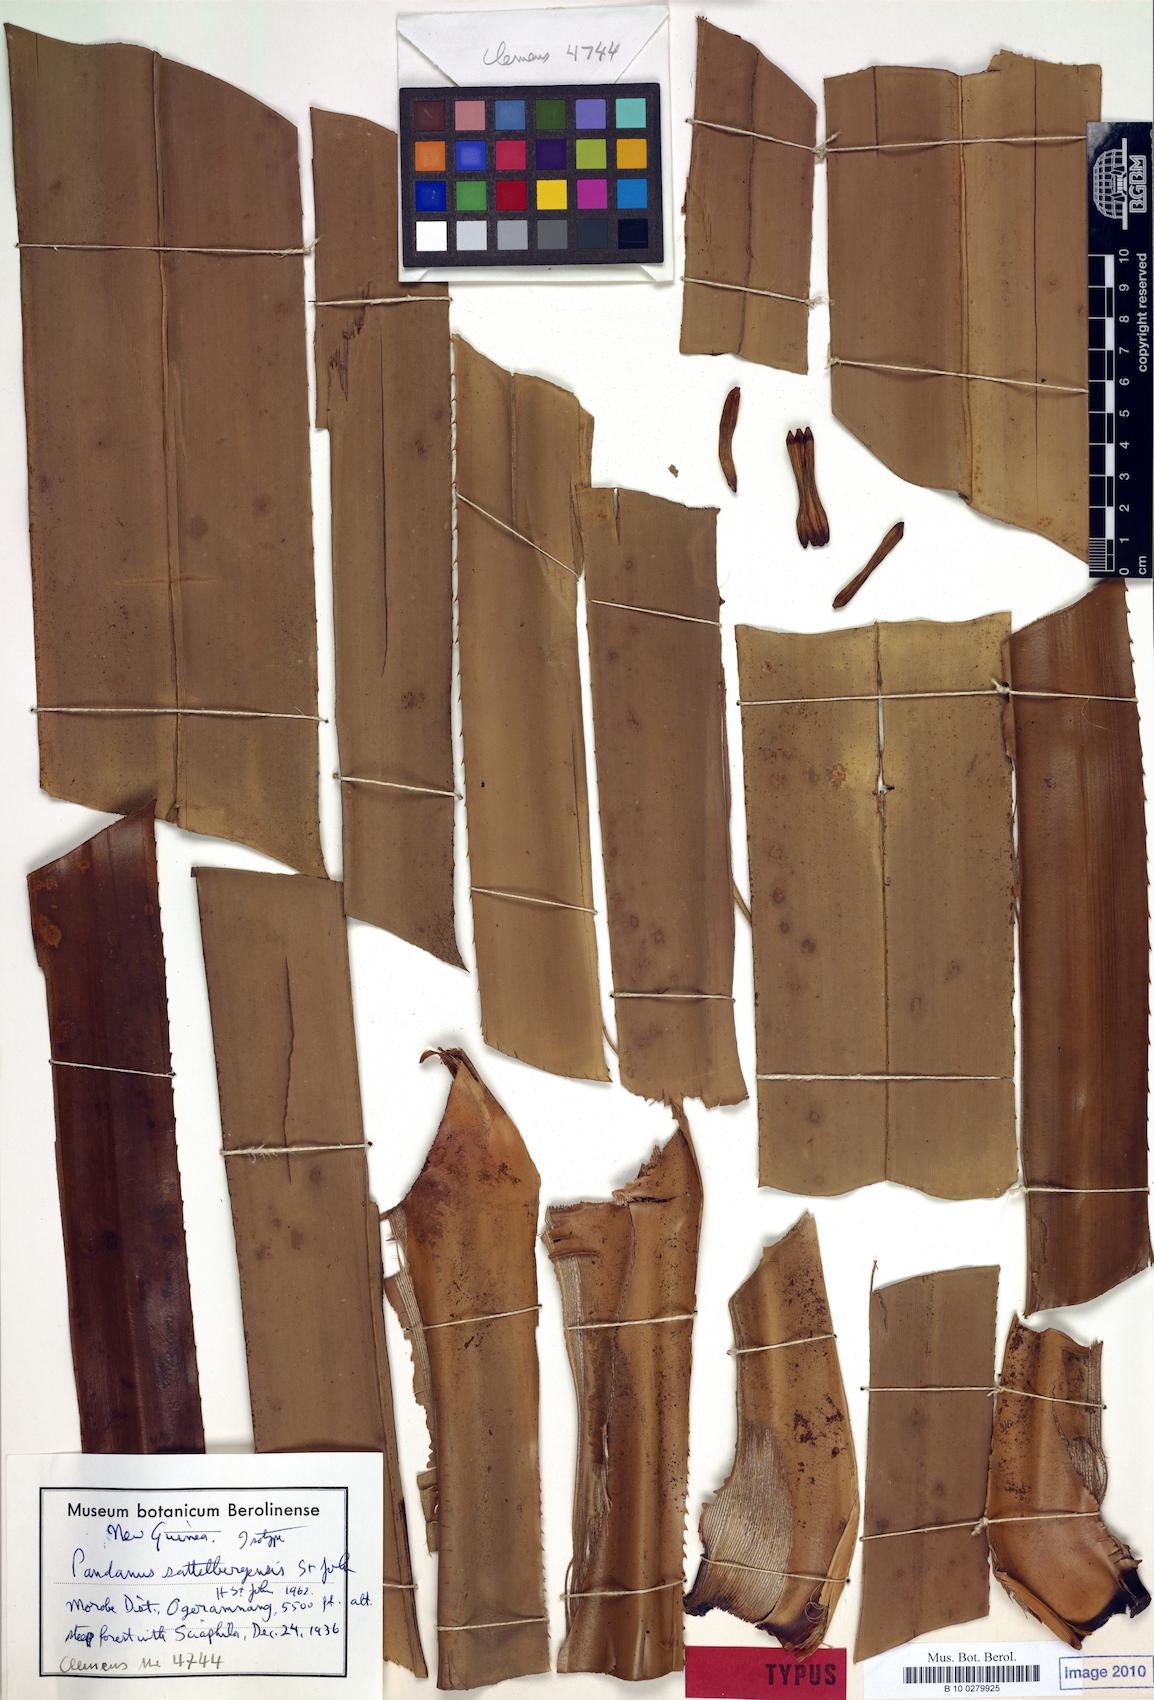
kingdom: Plantae
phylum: Tracheophyta
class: Liliopsida
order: Pandanales
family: Pandanaceae
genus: Pandanus
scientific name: Pandanus aggregatus
